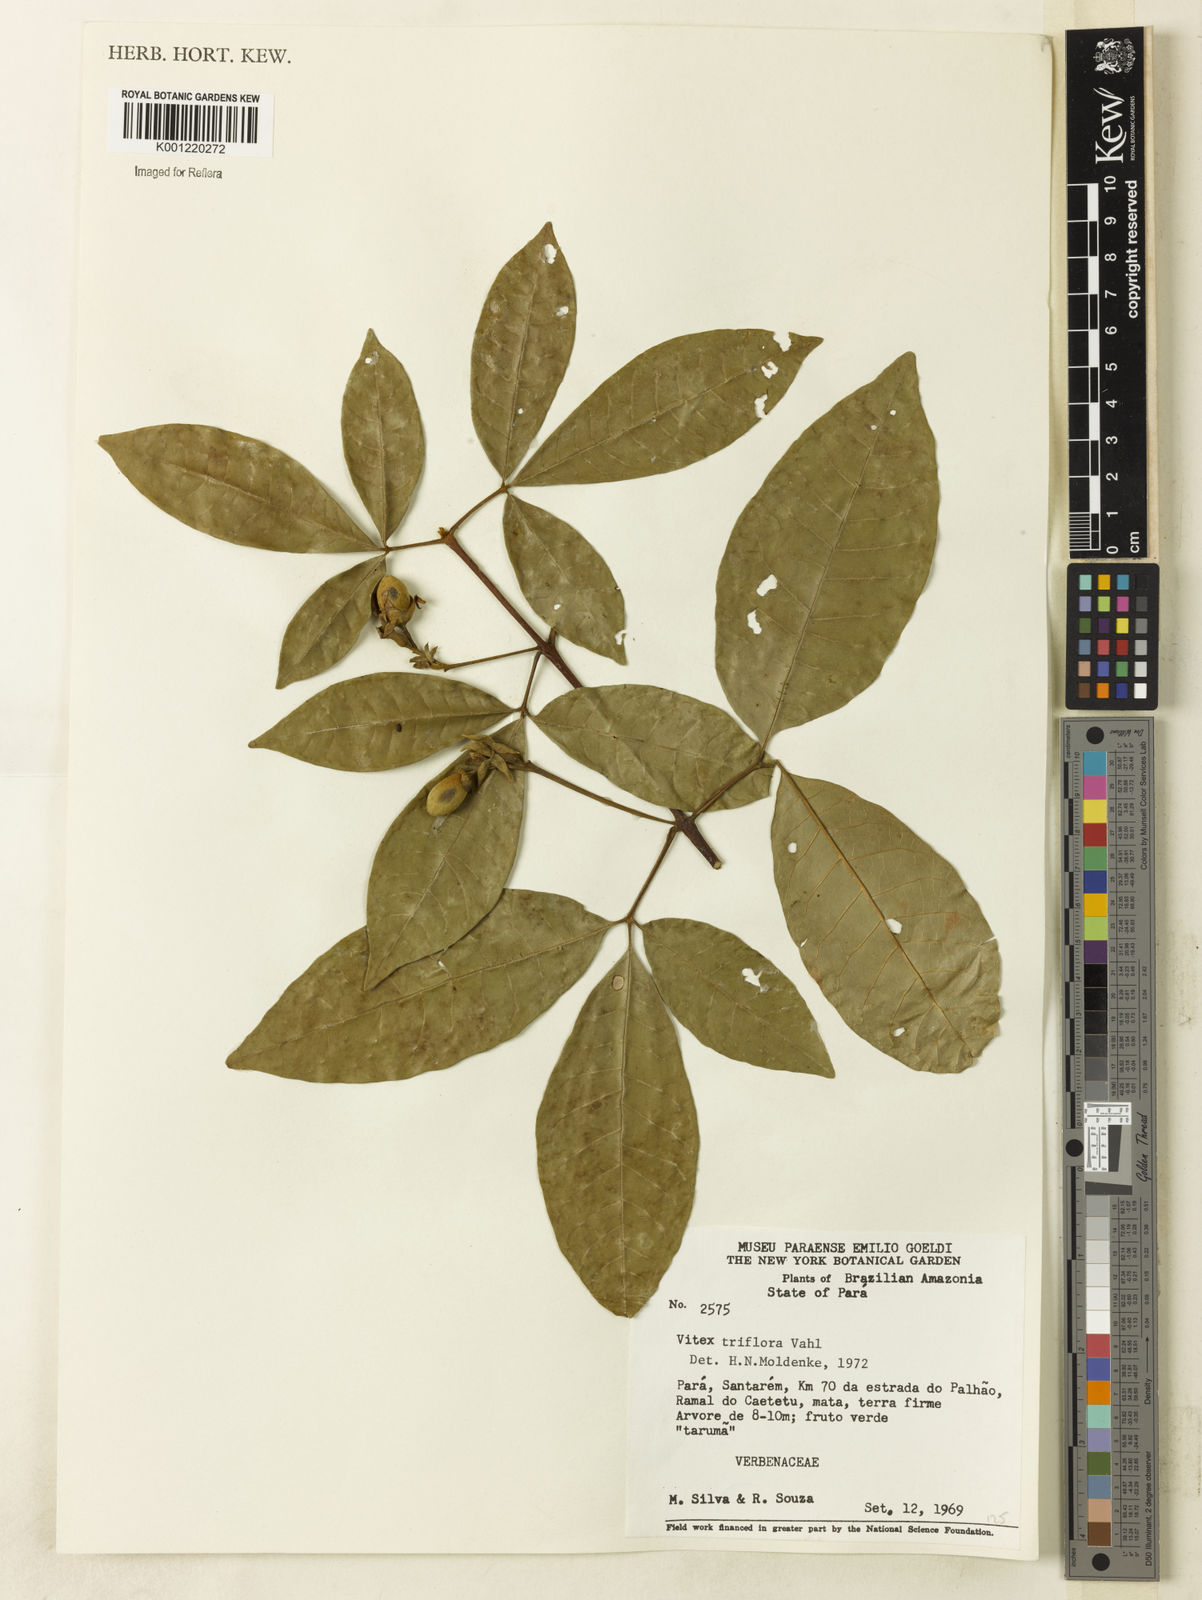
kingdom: Plantae
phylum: Tracheophyta
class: Magnoliopsida
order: Lamiales
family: Lamiaceae
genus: Vitex
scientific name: Vitex triflora
